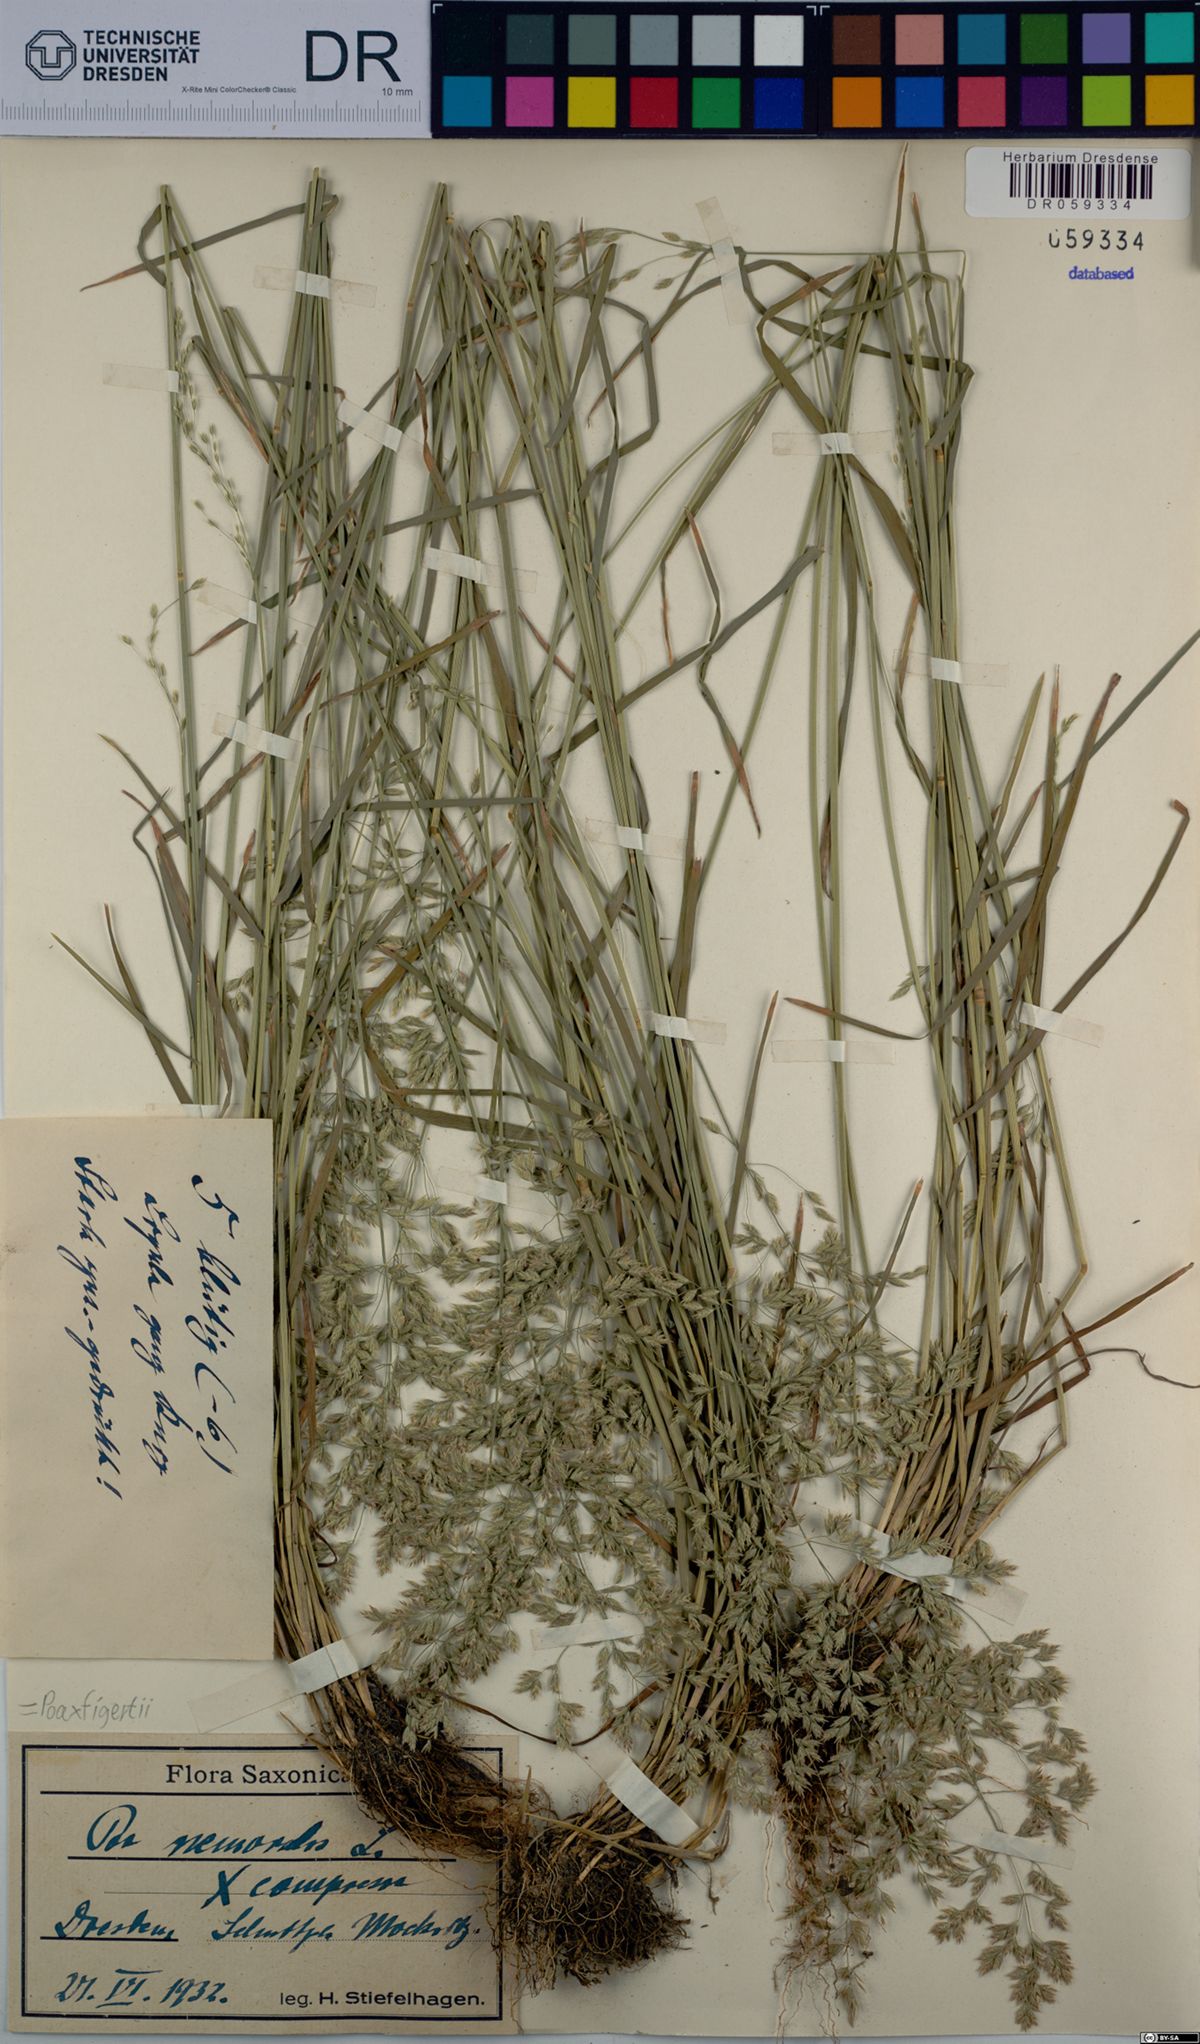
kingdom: Plantae
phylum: Tracheophyta
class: Liliopsida
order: Poales
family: Poaceae
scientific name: Poaceae
